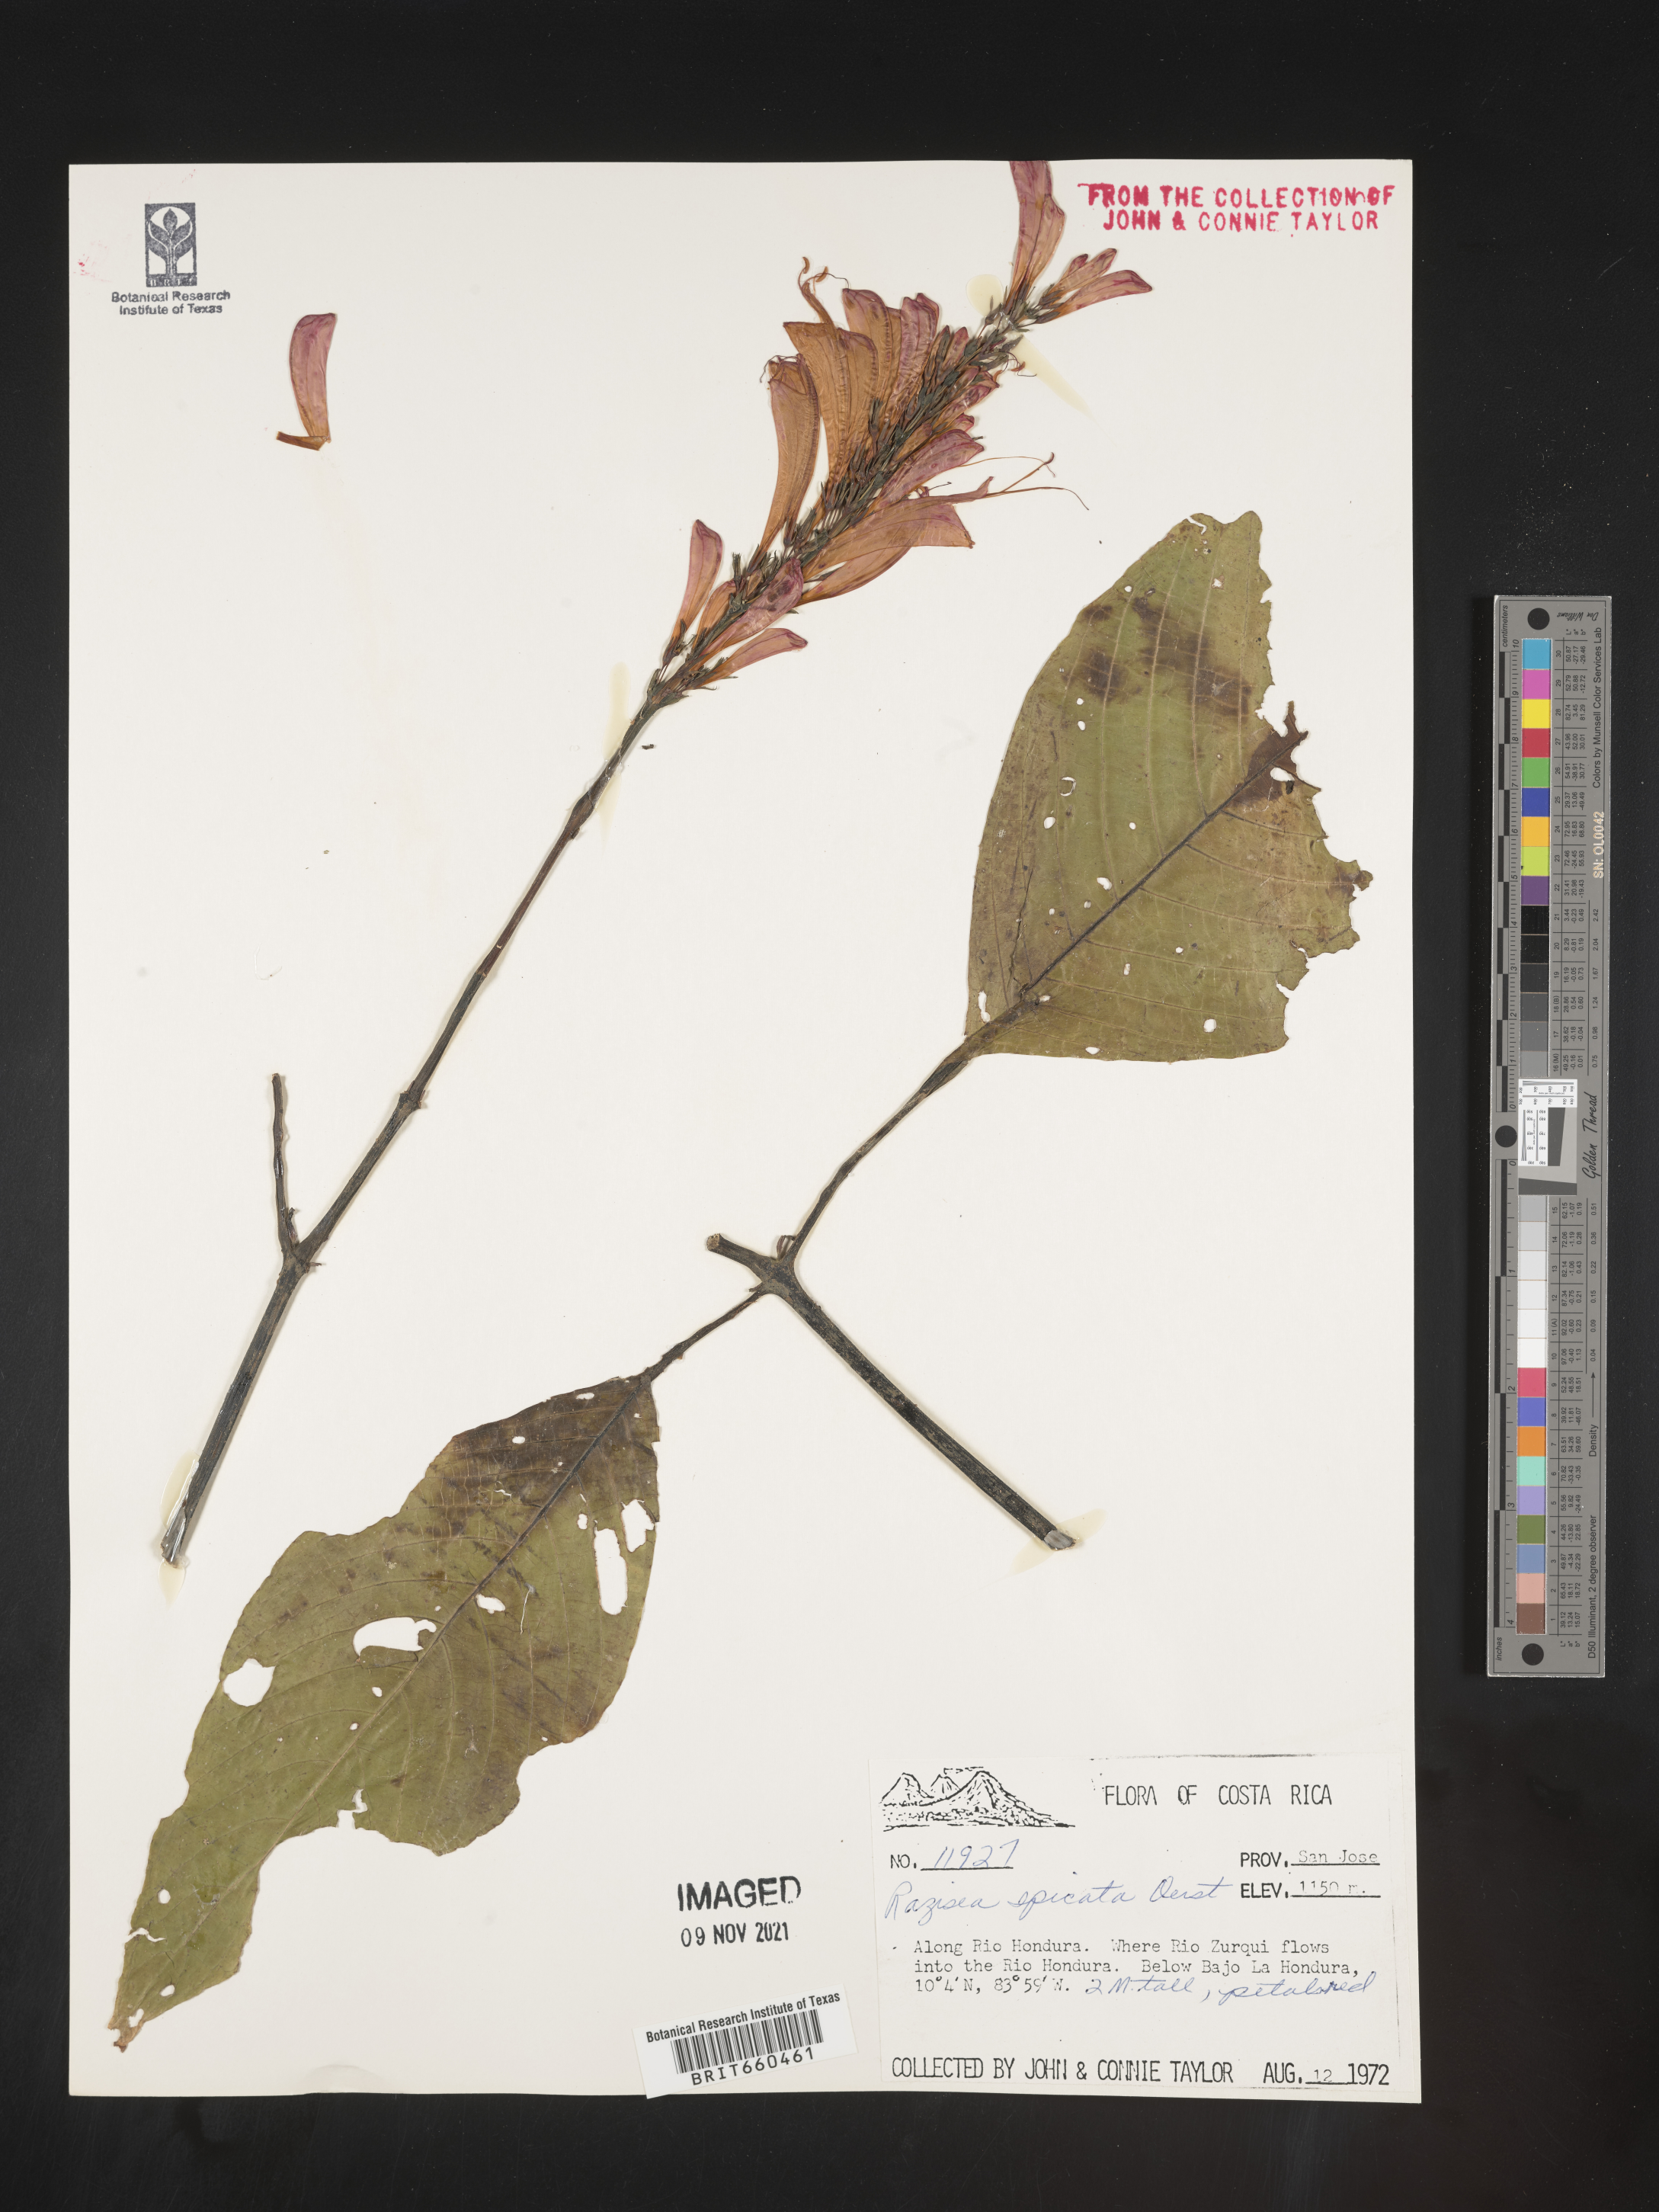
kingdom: Plantae
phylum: Tracheophyta
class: Magnoliopsida
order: Lamiales
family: Acanthaceae
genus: Stenostephanus
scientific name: Stenostephanus
